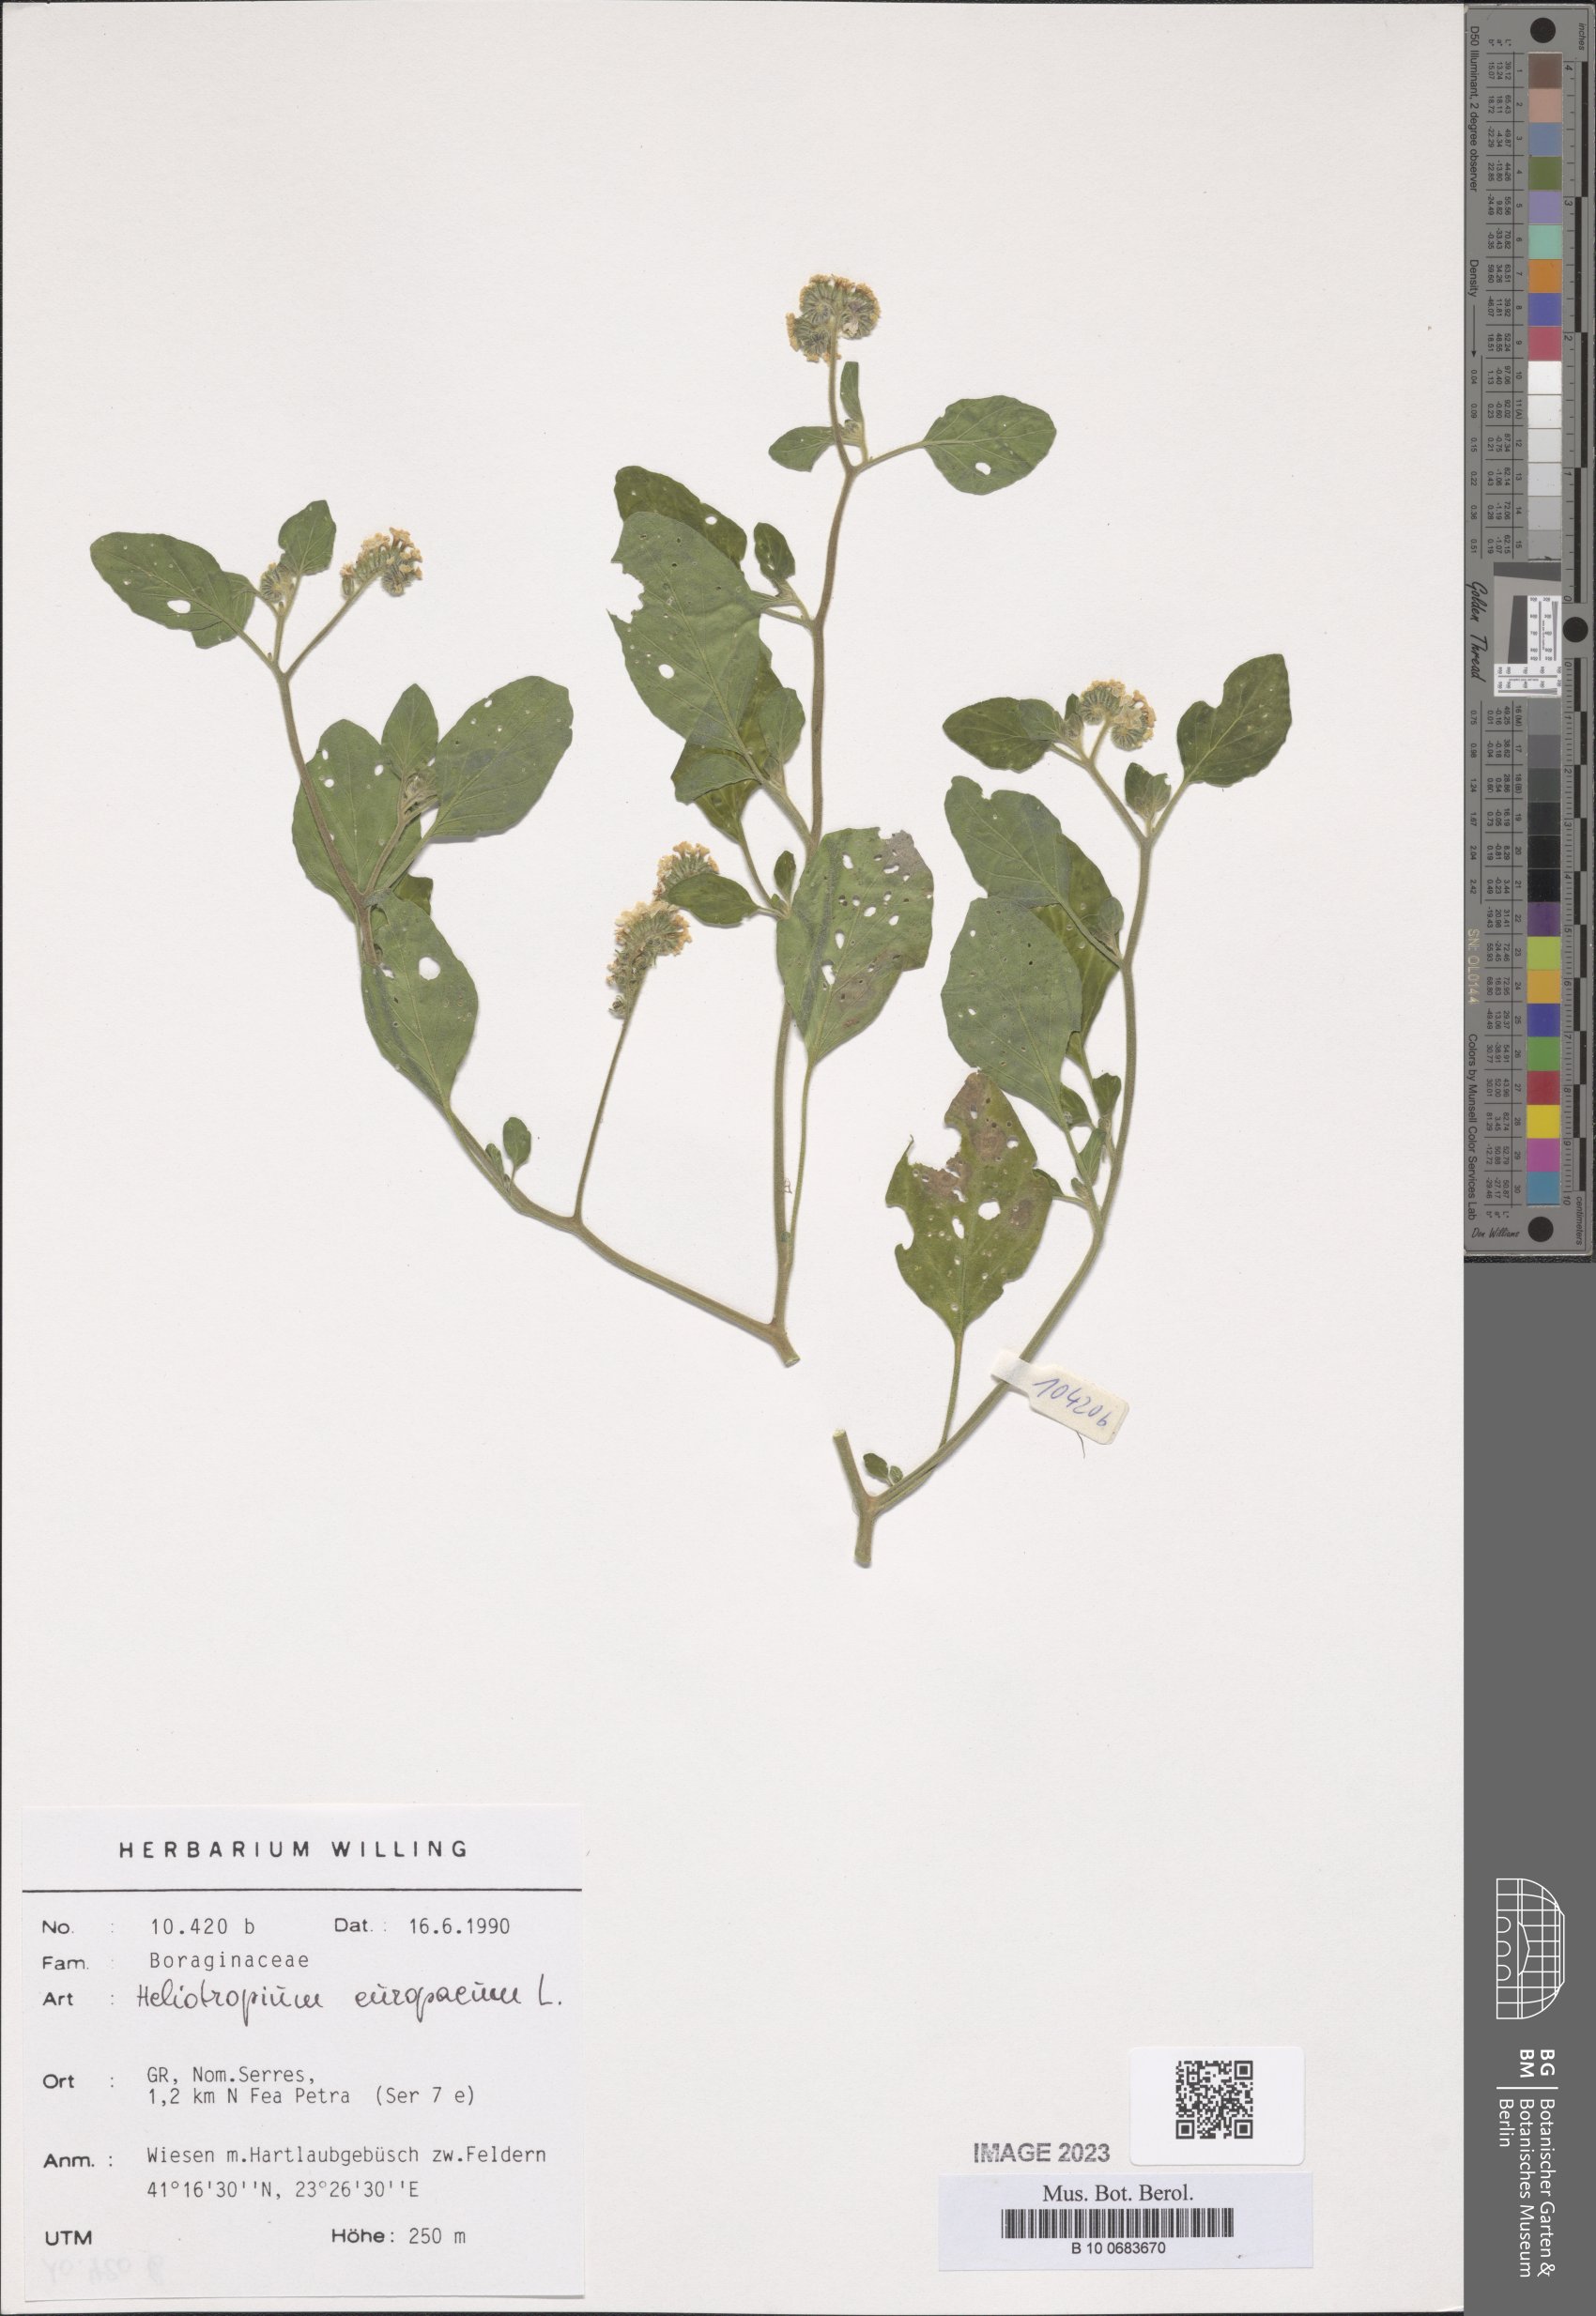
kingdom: Plantae
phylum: Tracheophyta
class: Magnoliopsida
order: Boraginales
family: Heliotropiaceae
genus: Heliotropium
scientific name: Heliotropium europaeum
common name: European heliotrope
